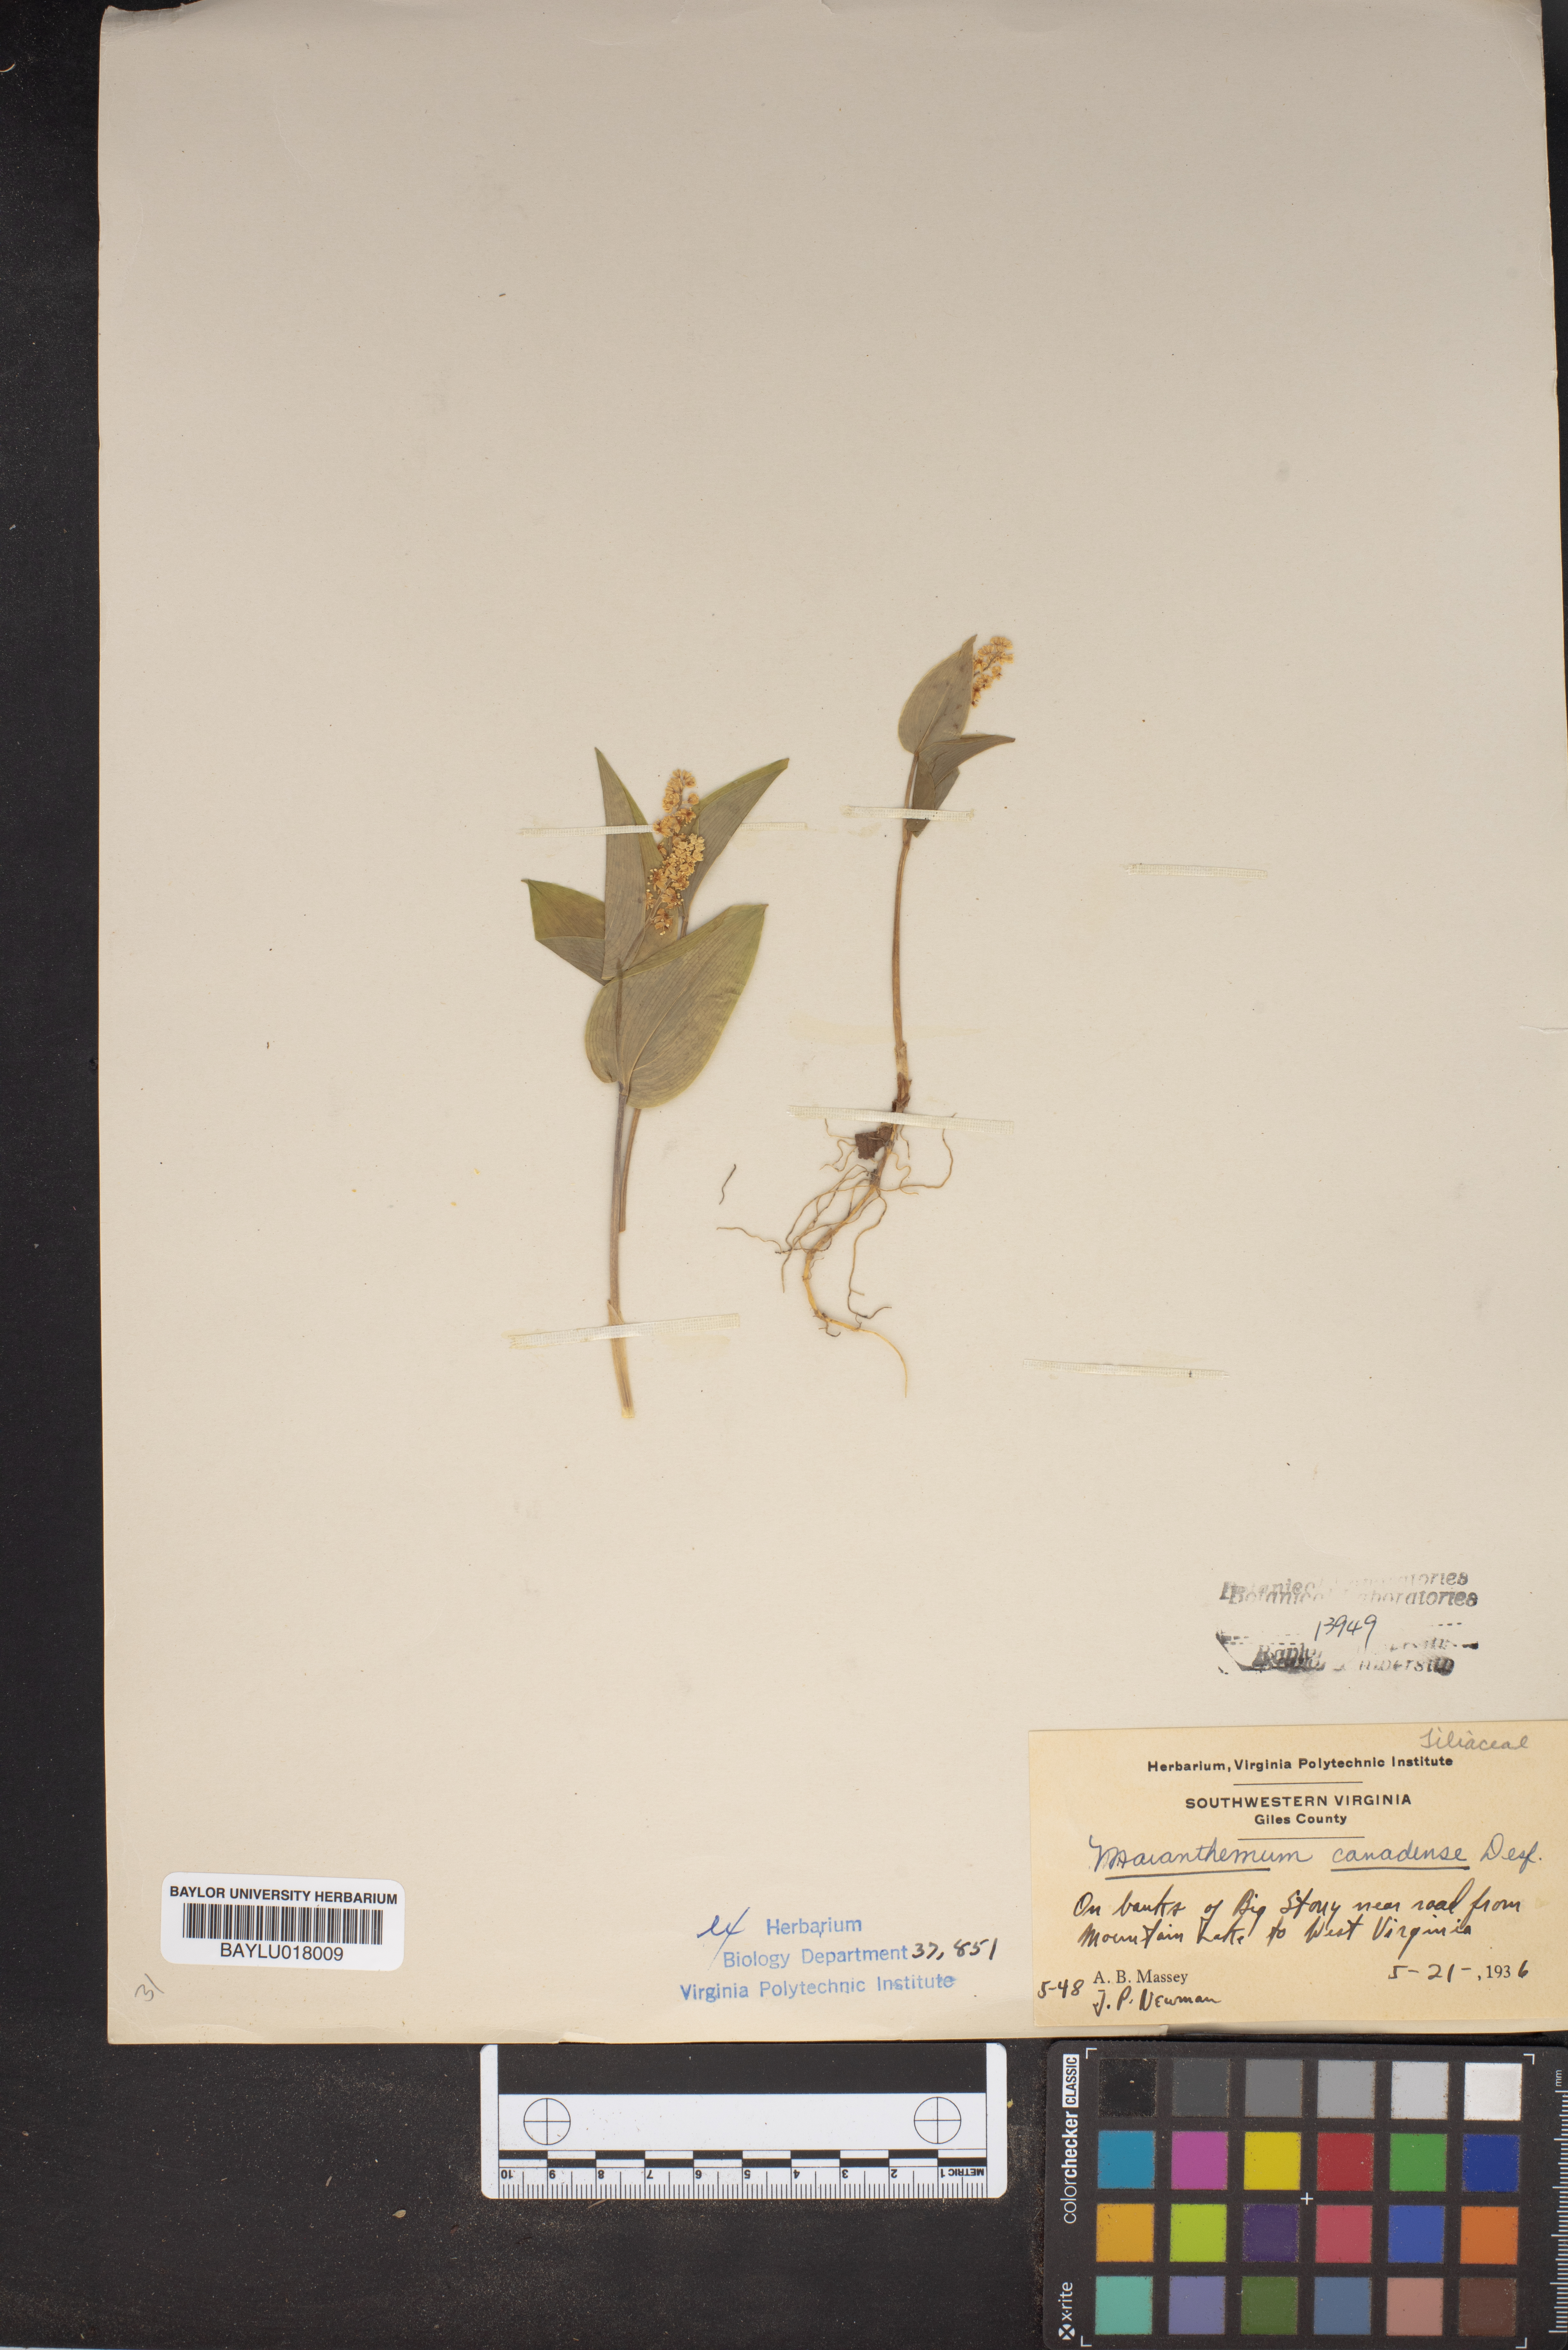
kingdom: Plantae
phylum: Tracheophyta
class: Liliopsida
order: Asparagales
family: Asparagaceae
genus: Maianthemum
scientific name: Maianthemum canadense
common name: False lily-of-the-valley
